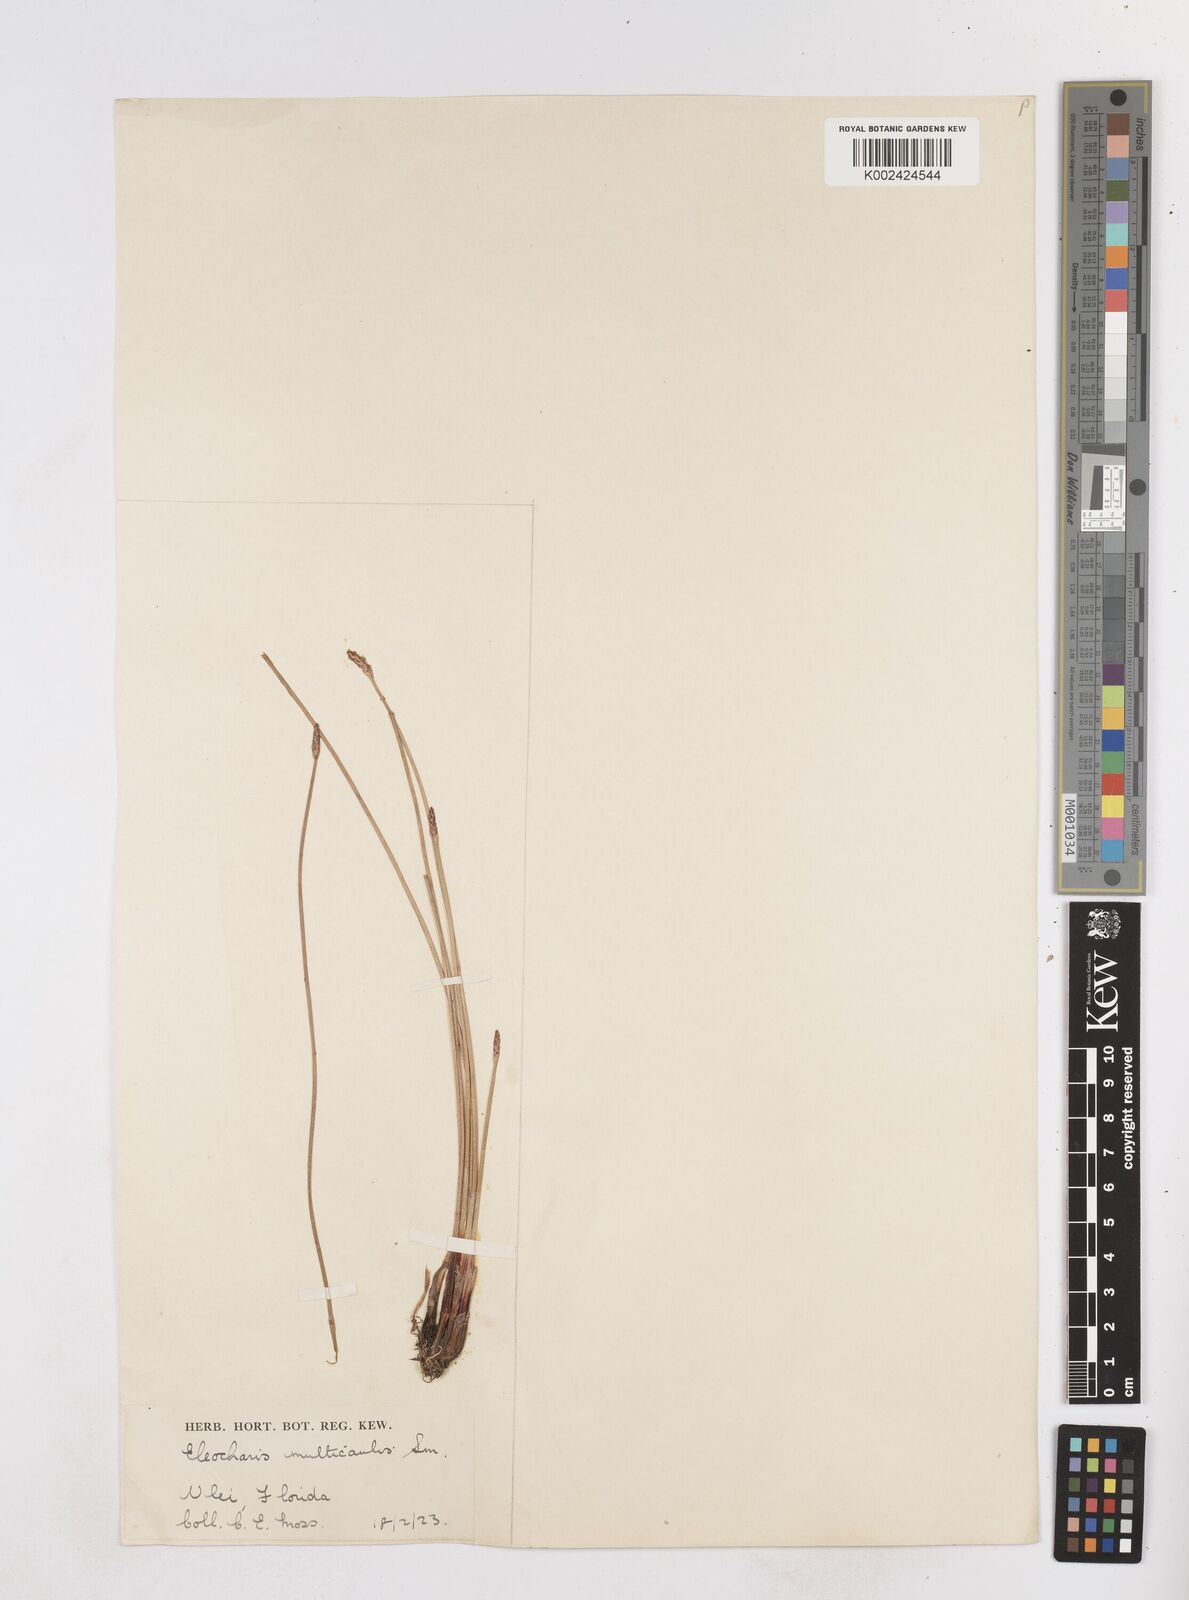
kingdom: Plantae
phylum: Tracheophyta
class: Liliopsida
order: Poales
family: Cyperaceae
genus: Eleocharis
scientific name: Eleocharis palustris
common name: Common spike-rush
